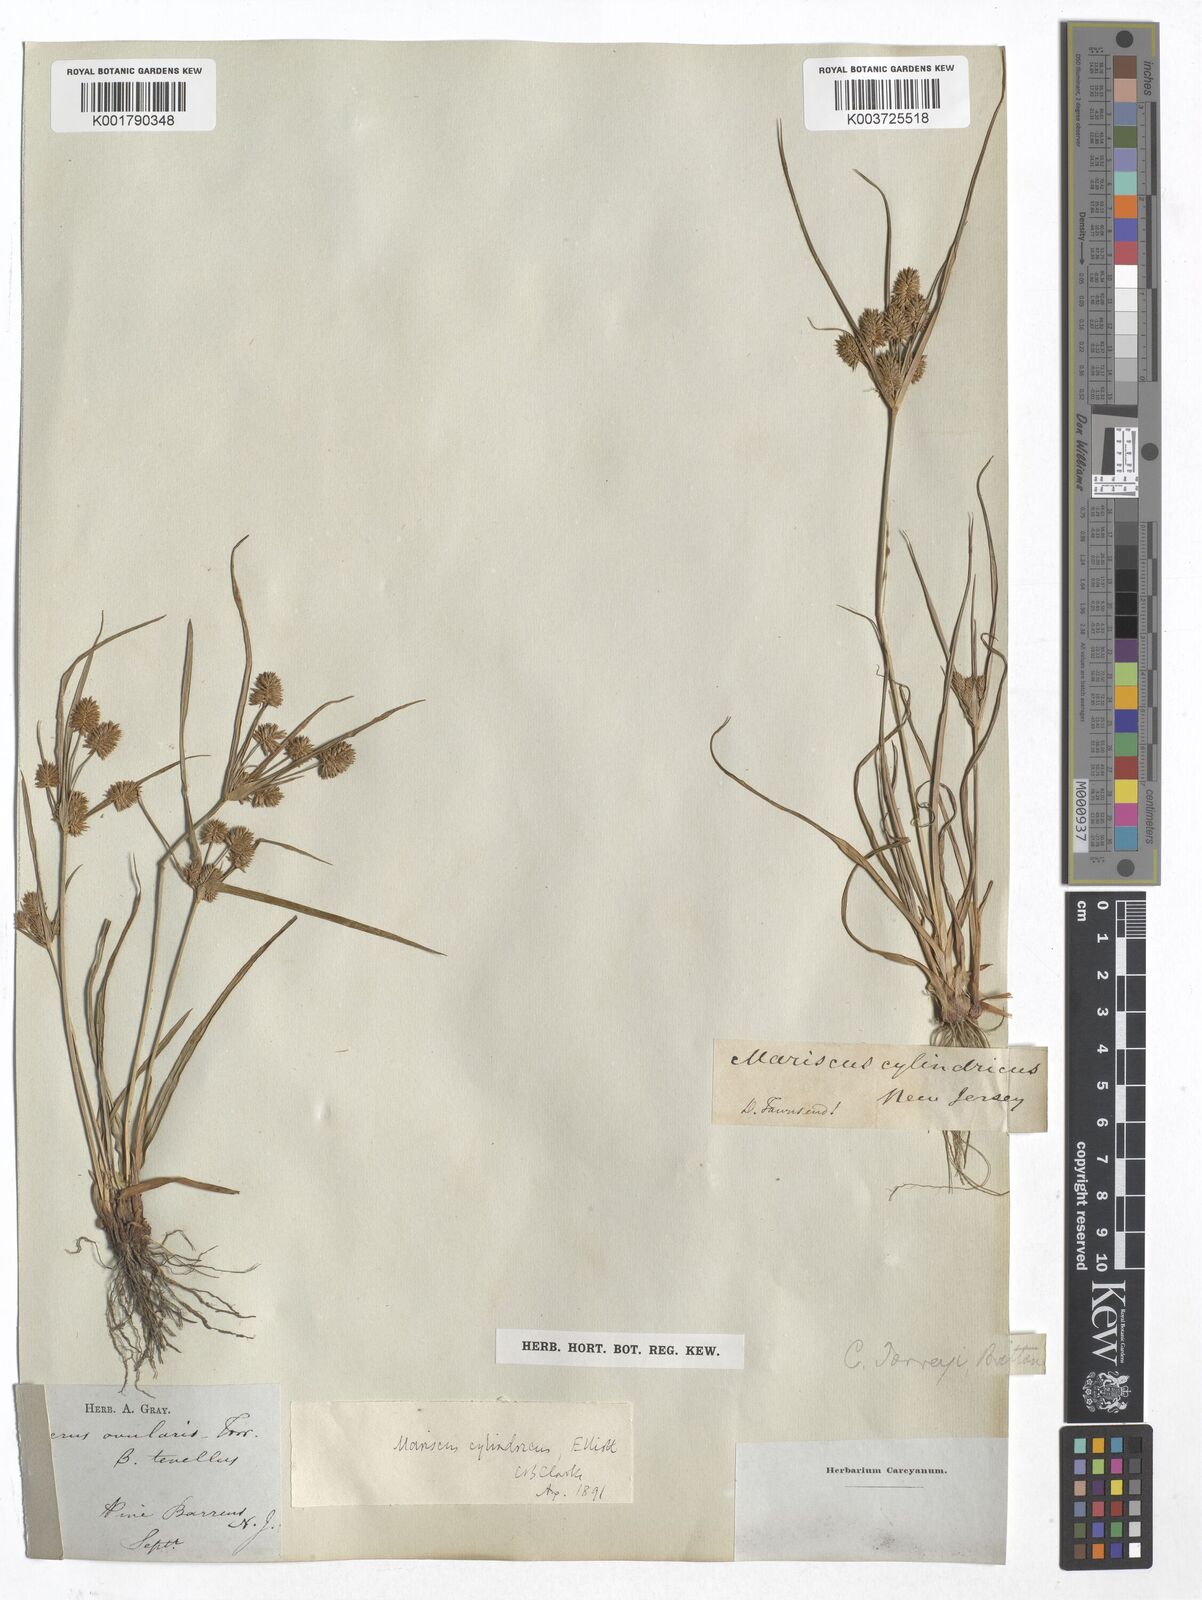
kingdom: Plantae
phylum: Tracheophyta
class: Liliopsida
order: Poales
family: Cyperaceae
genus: Cyperus
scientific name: Cyperus retrorsus
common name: Pinebarren flat sedge
